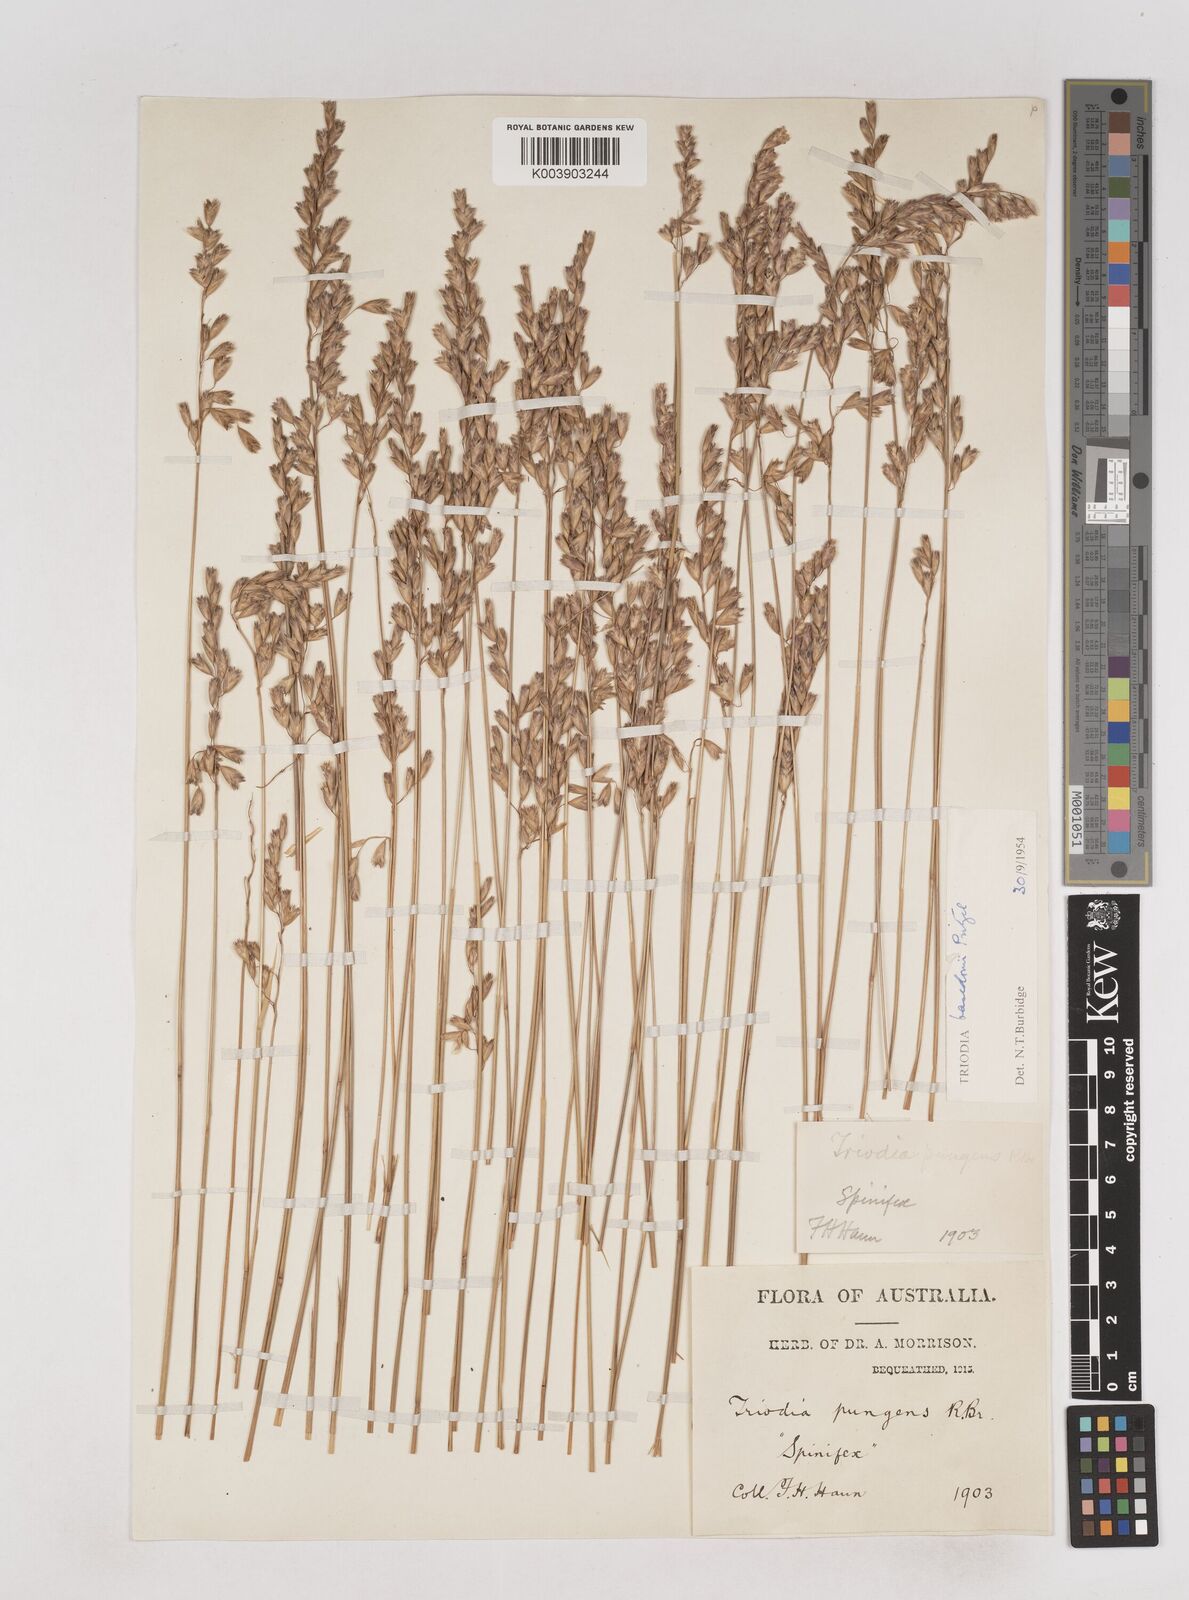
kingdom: Plantae
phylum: Tracheophyta
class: Liliopsida
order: Poales
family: Poaceae
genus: Triodia
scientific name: Triodia basedowii
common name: Hard spinifex
